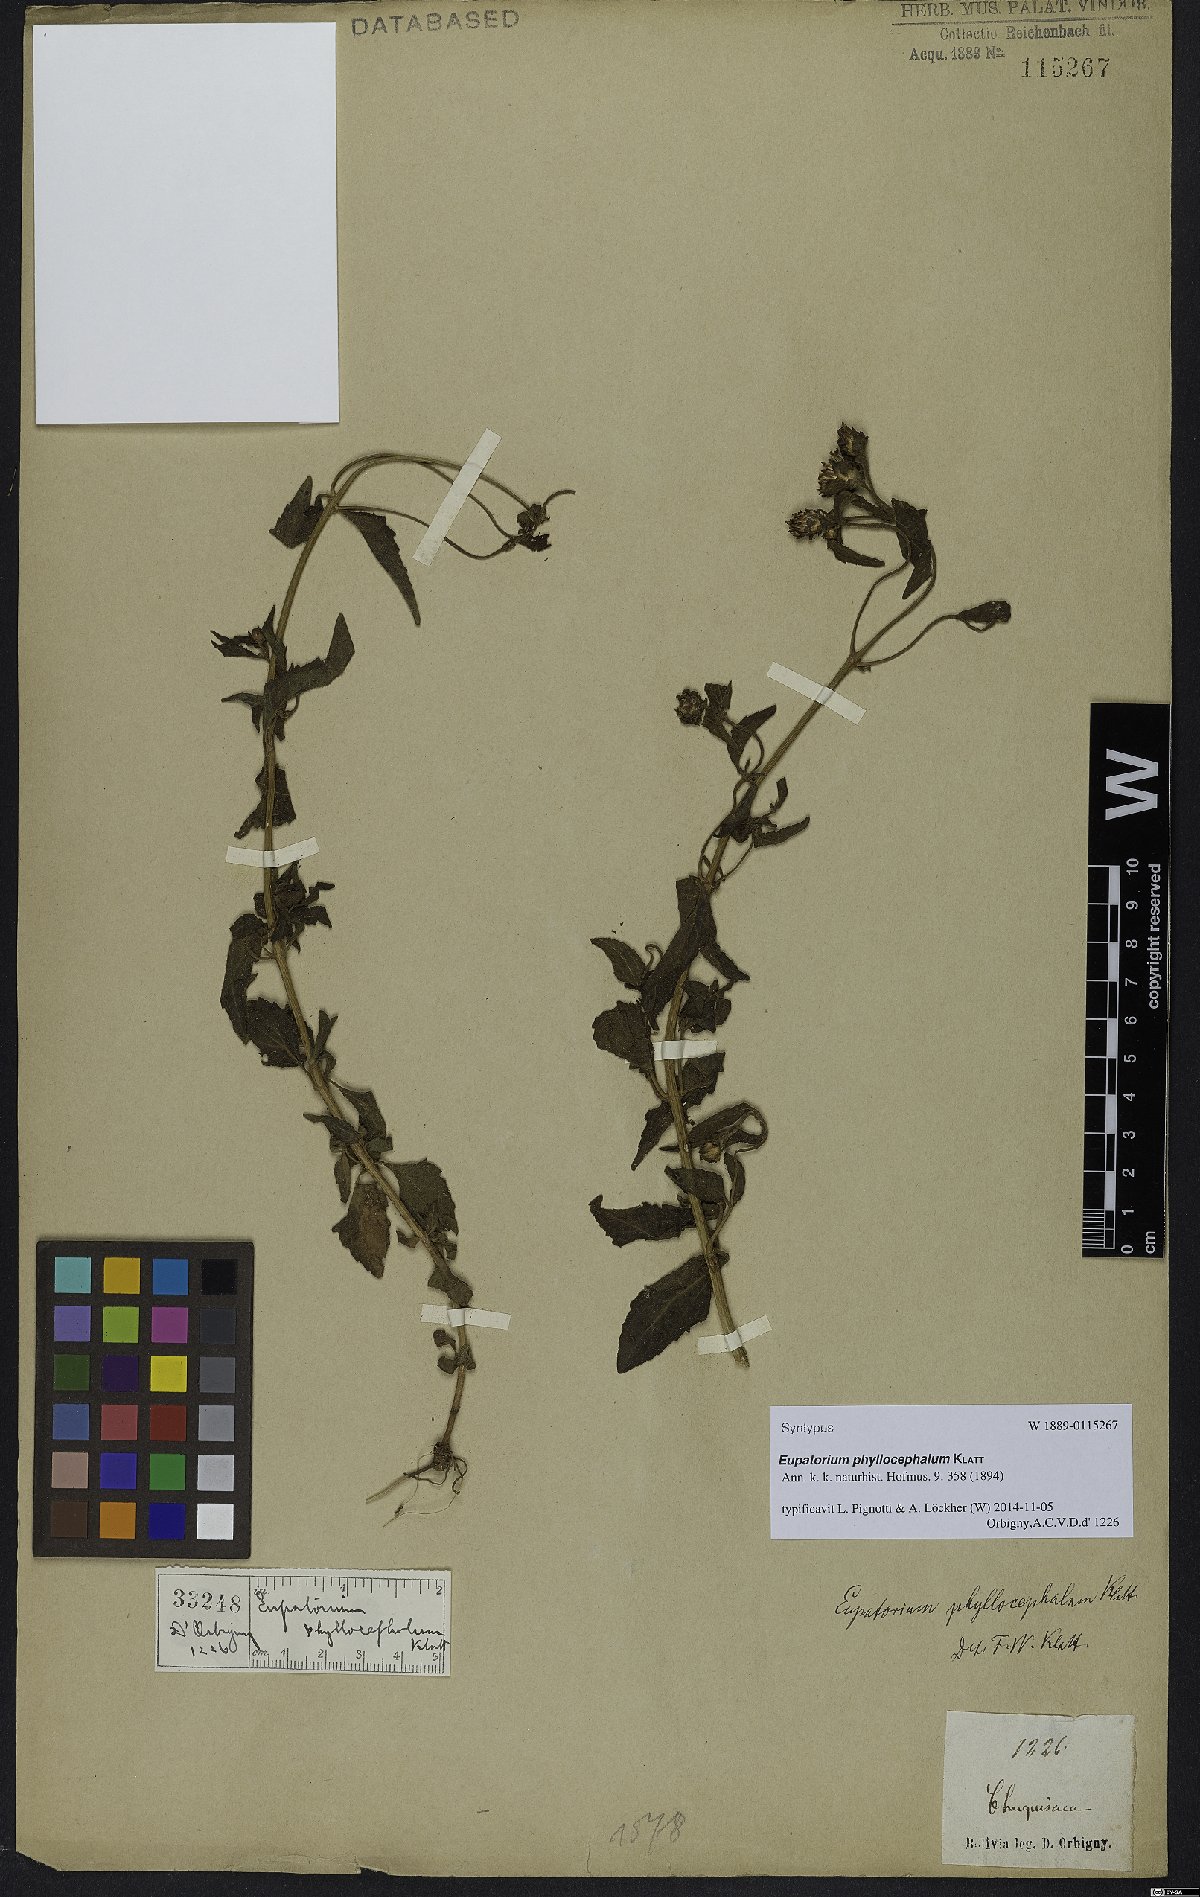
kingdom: Plantae
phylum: Tracheophyta
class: Magnoliopsida
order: Asterales
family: Asteraceae
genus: Chromolaena
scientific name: Chromolaena hirsuta
